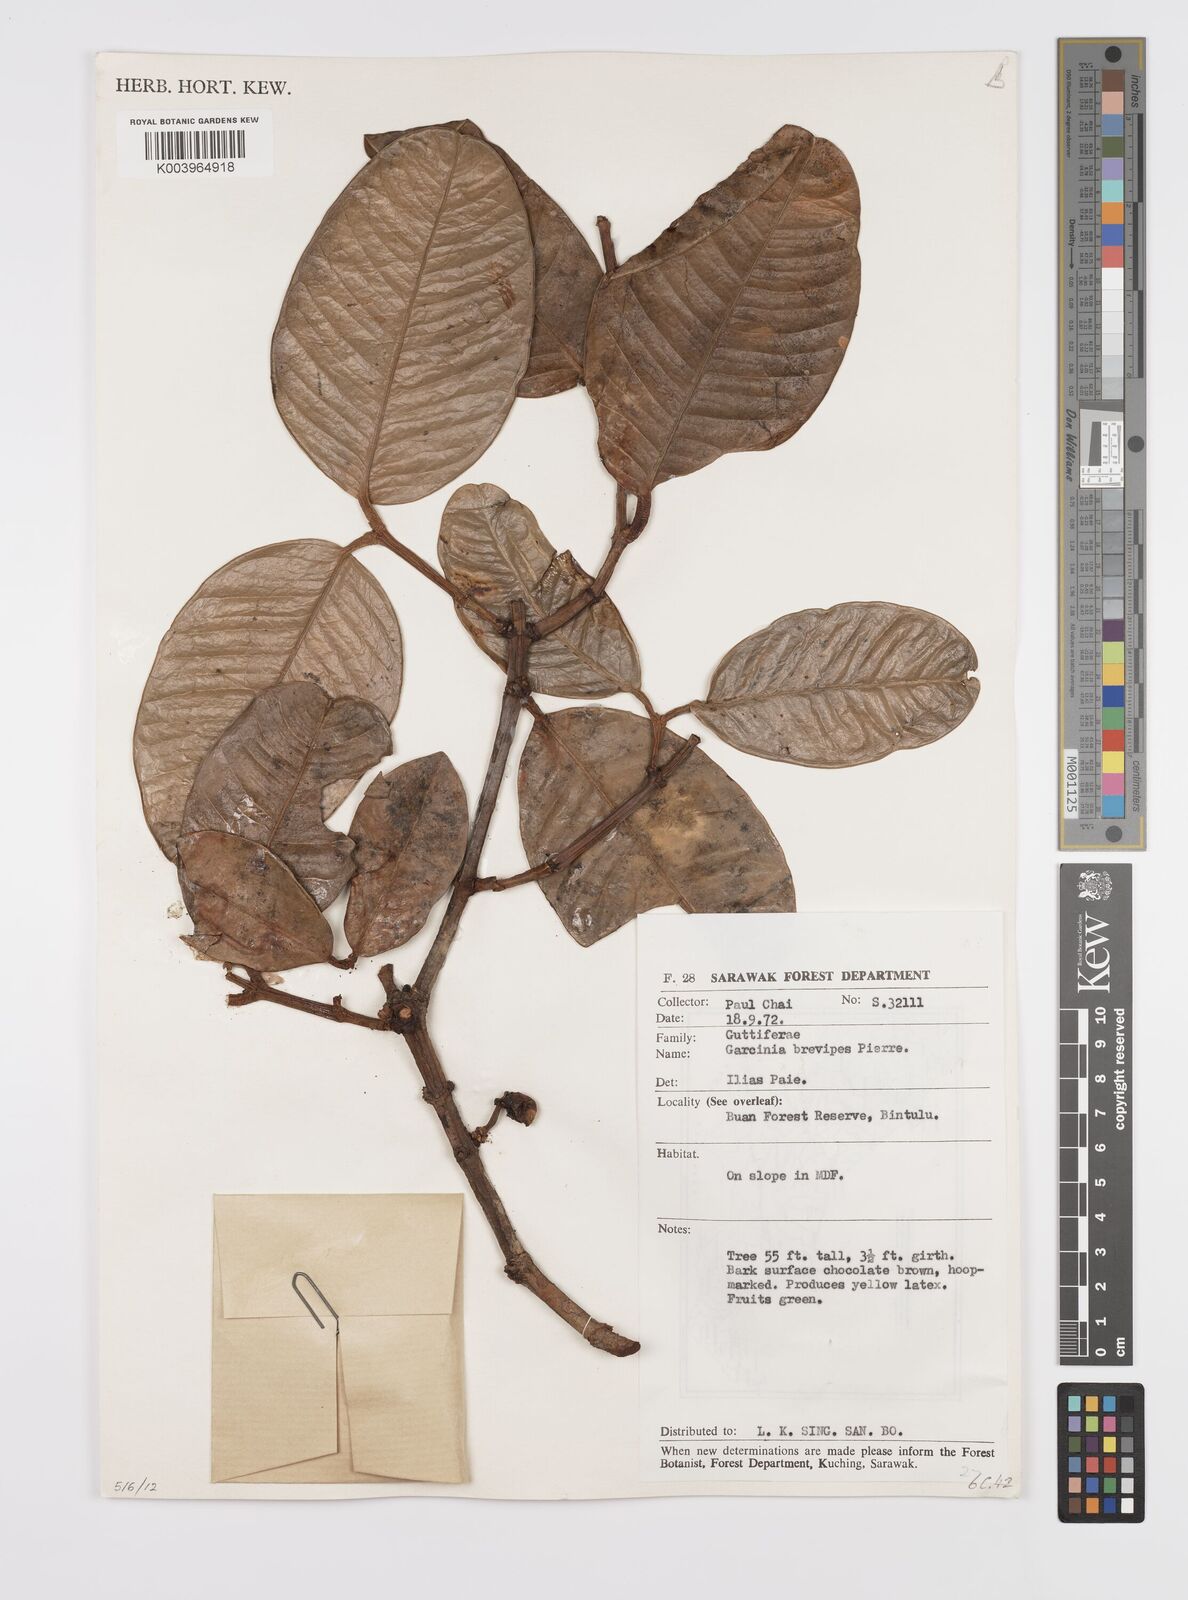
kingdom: Plantae
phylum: Tracheophyta
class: Magnoliopsida
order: Malpighiales
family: Clusiaceae
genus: Garcinia
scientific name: Garcinia brevipes
